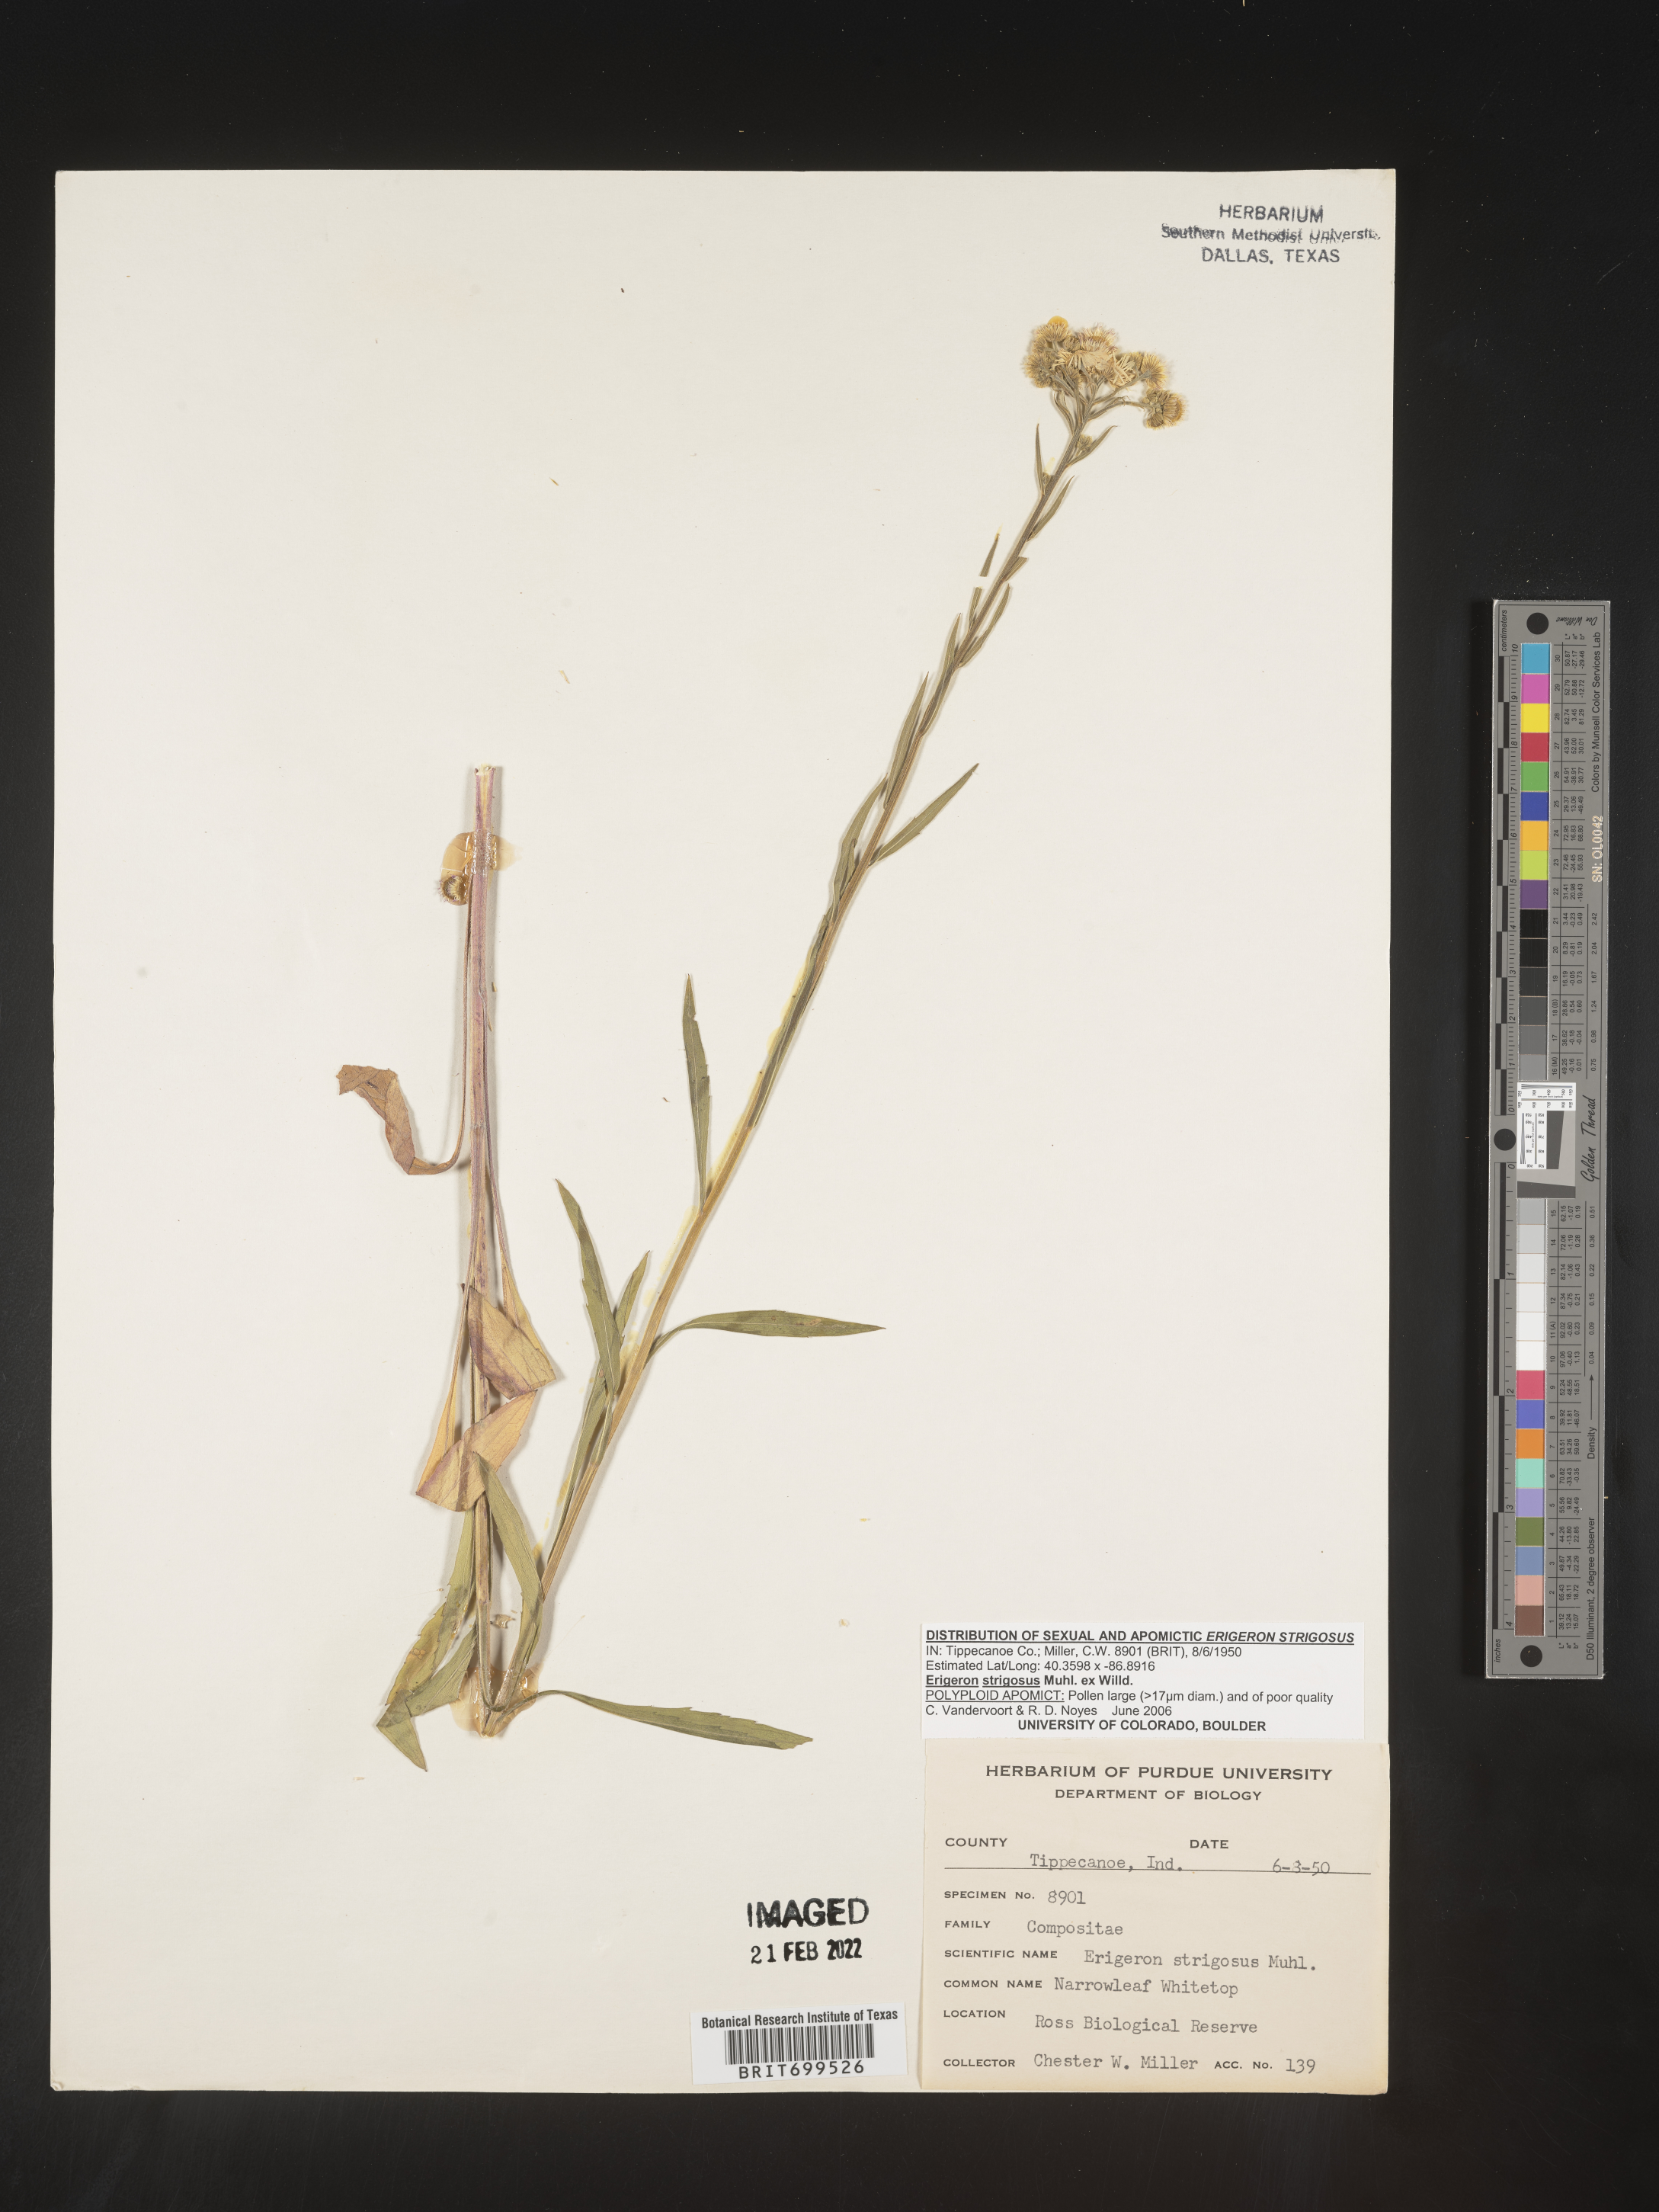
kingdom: Plantae
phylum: Tracheophyta
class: Magnoliopsida
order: Asterales
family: Asteraceae
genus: Erigeron
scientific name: Erigeron strigosus
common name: Common eastern fleabane
